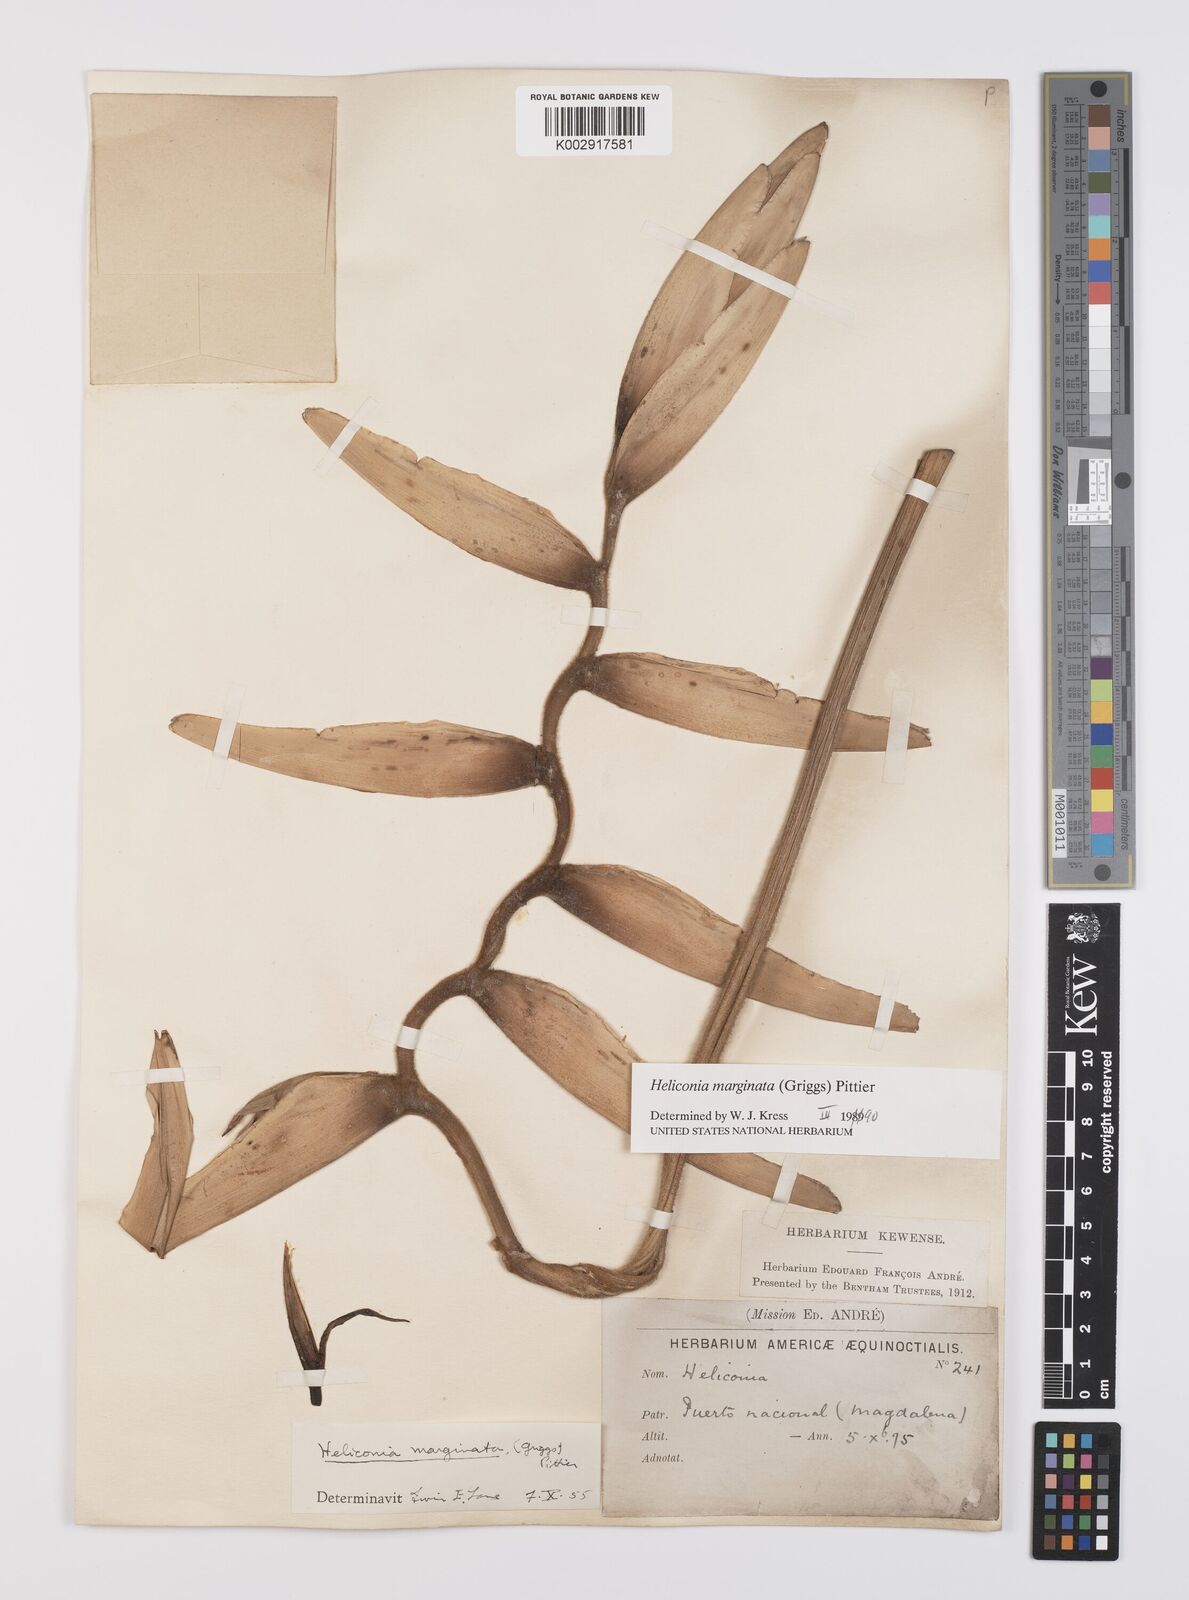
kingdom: Plantae
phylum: Tracheophyta
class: Liliopsida
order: Zingiberales
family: Heliconiaceae
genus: Heliconia
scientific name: Heliconia marginata
